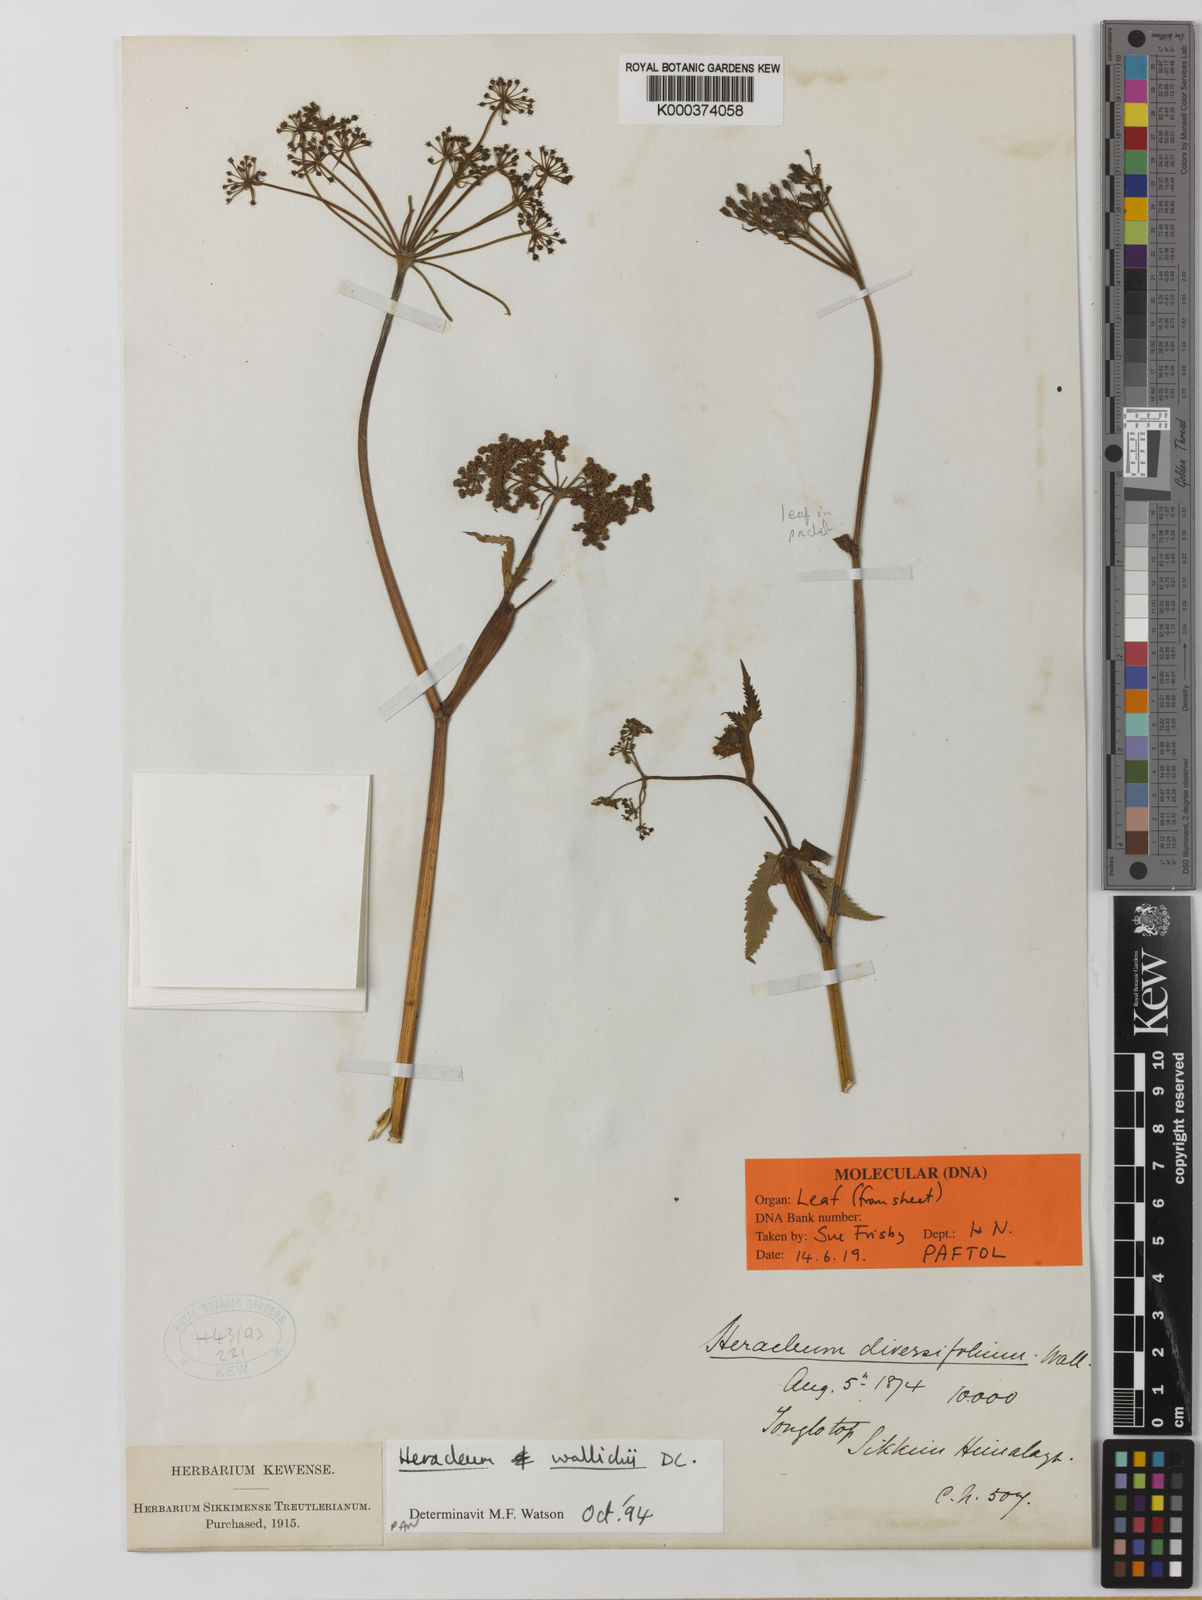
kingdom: Plantae
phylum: Tracheophyta
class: Magnoliopsida
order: Apiales
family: Apiaceae
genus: Tetrataenium
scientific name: Tetrataenium wallichii
